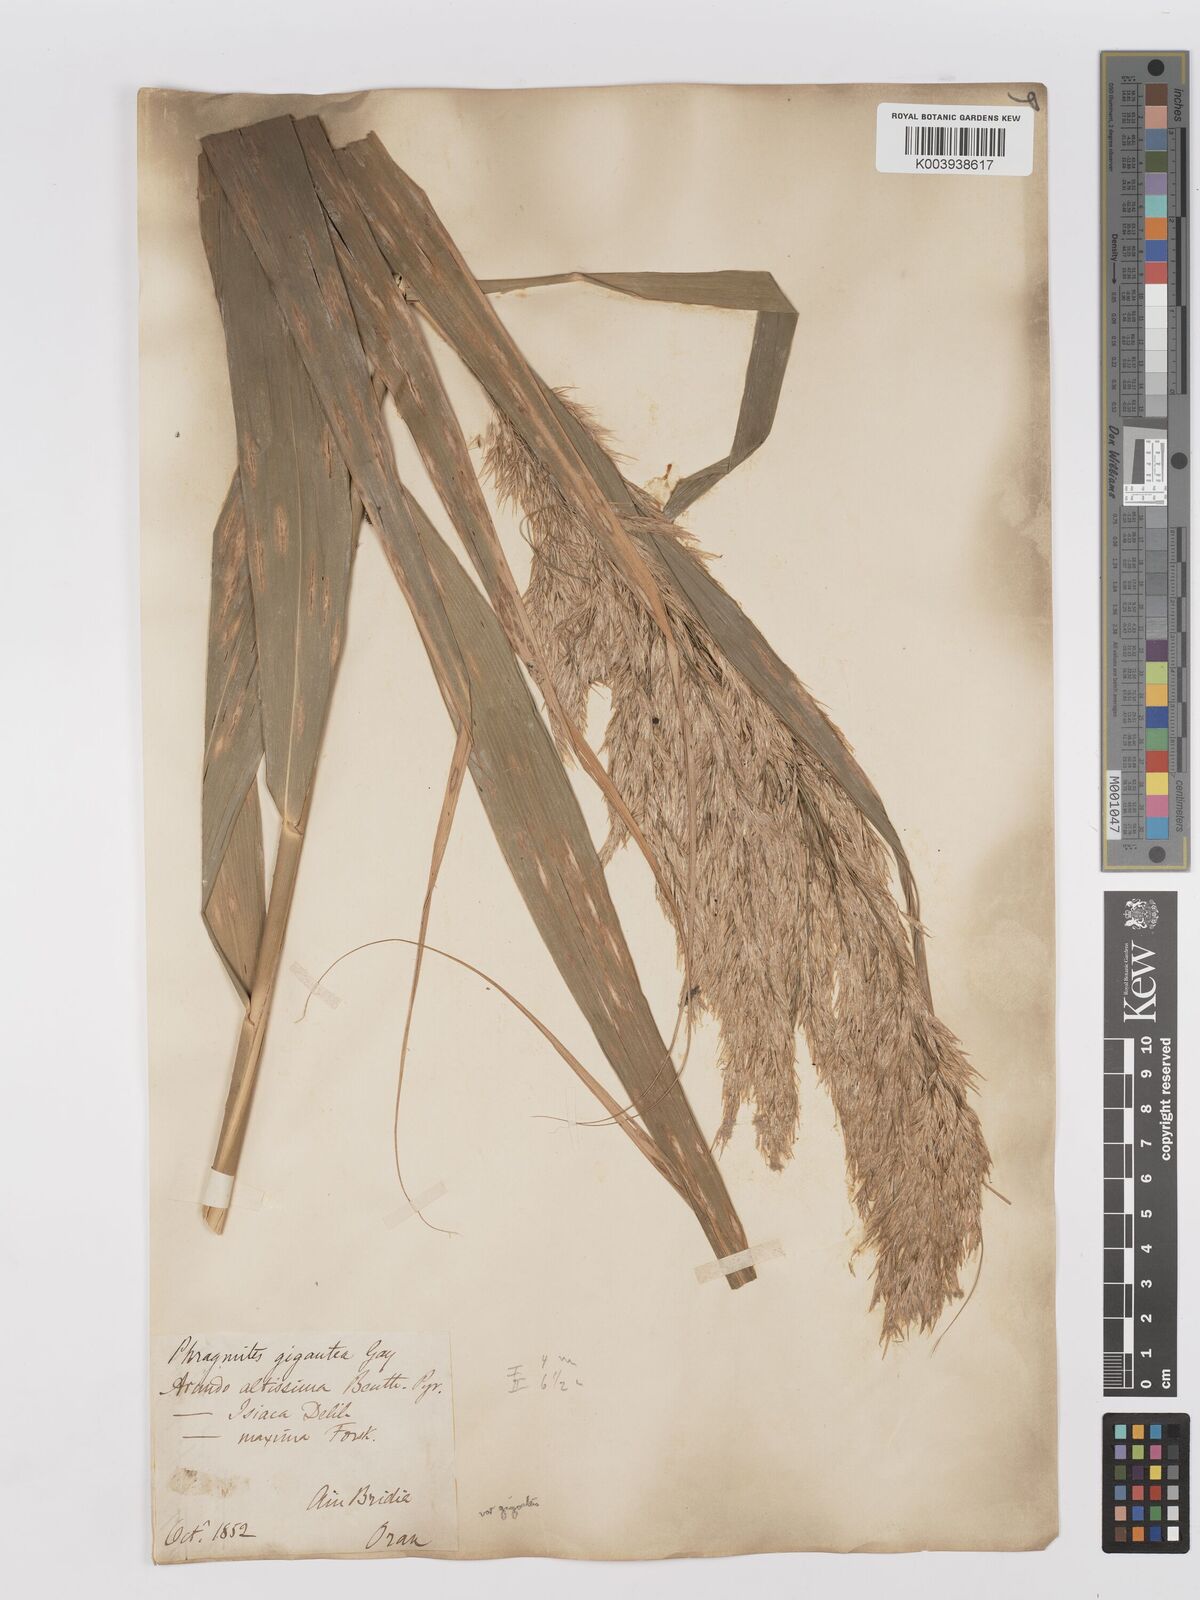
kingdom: Plantae
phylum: Tracheophyta
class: Liliopsida
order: Poales
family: Poaceae
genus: Phragmites
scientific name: Phragmites australis
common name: Common reed
